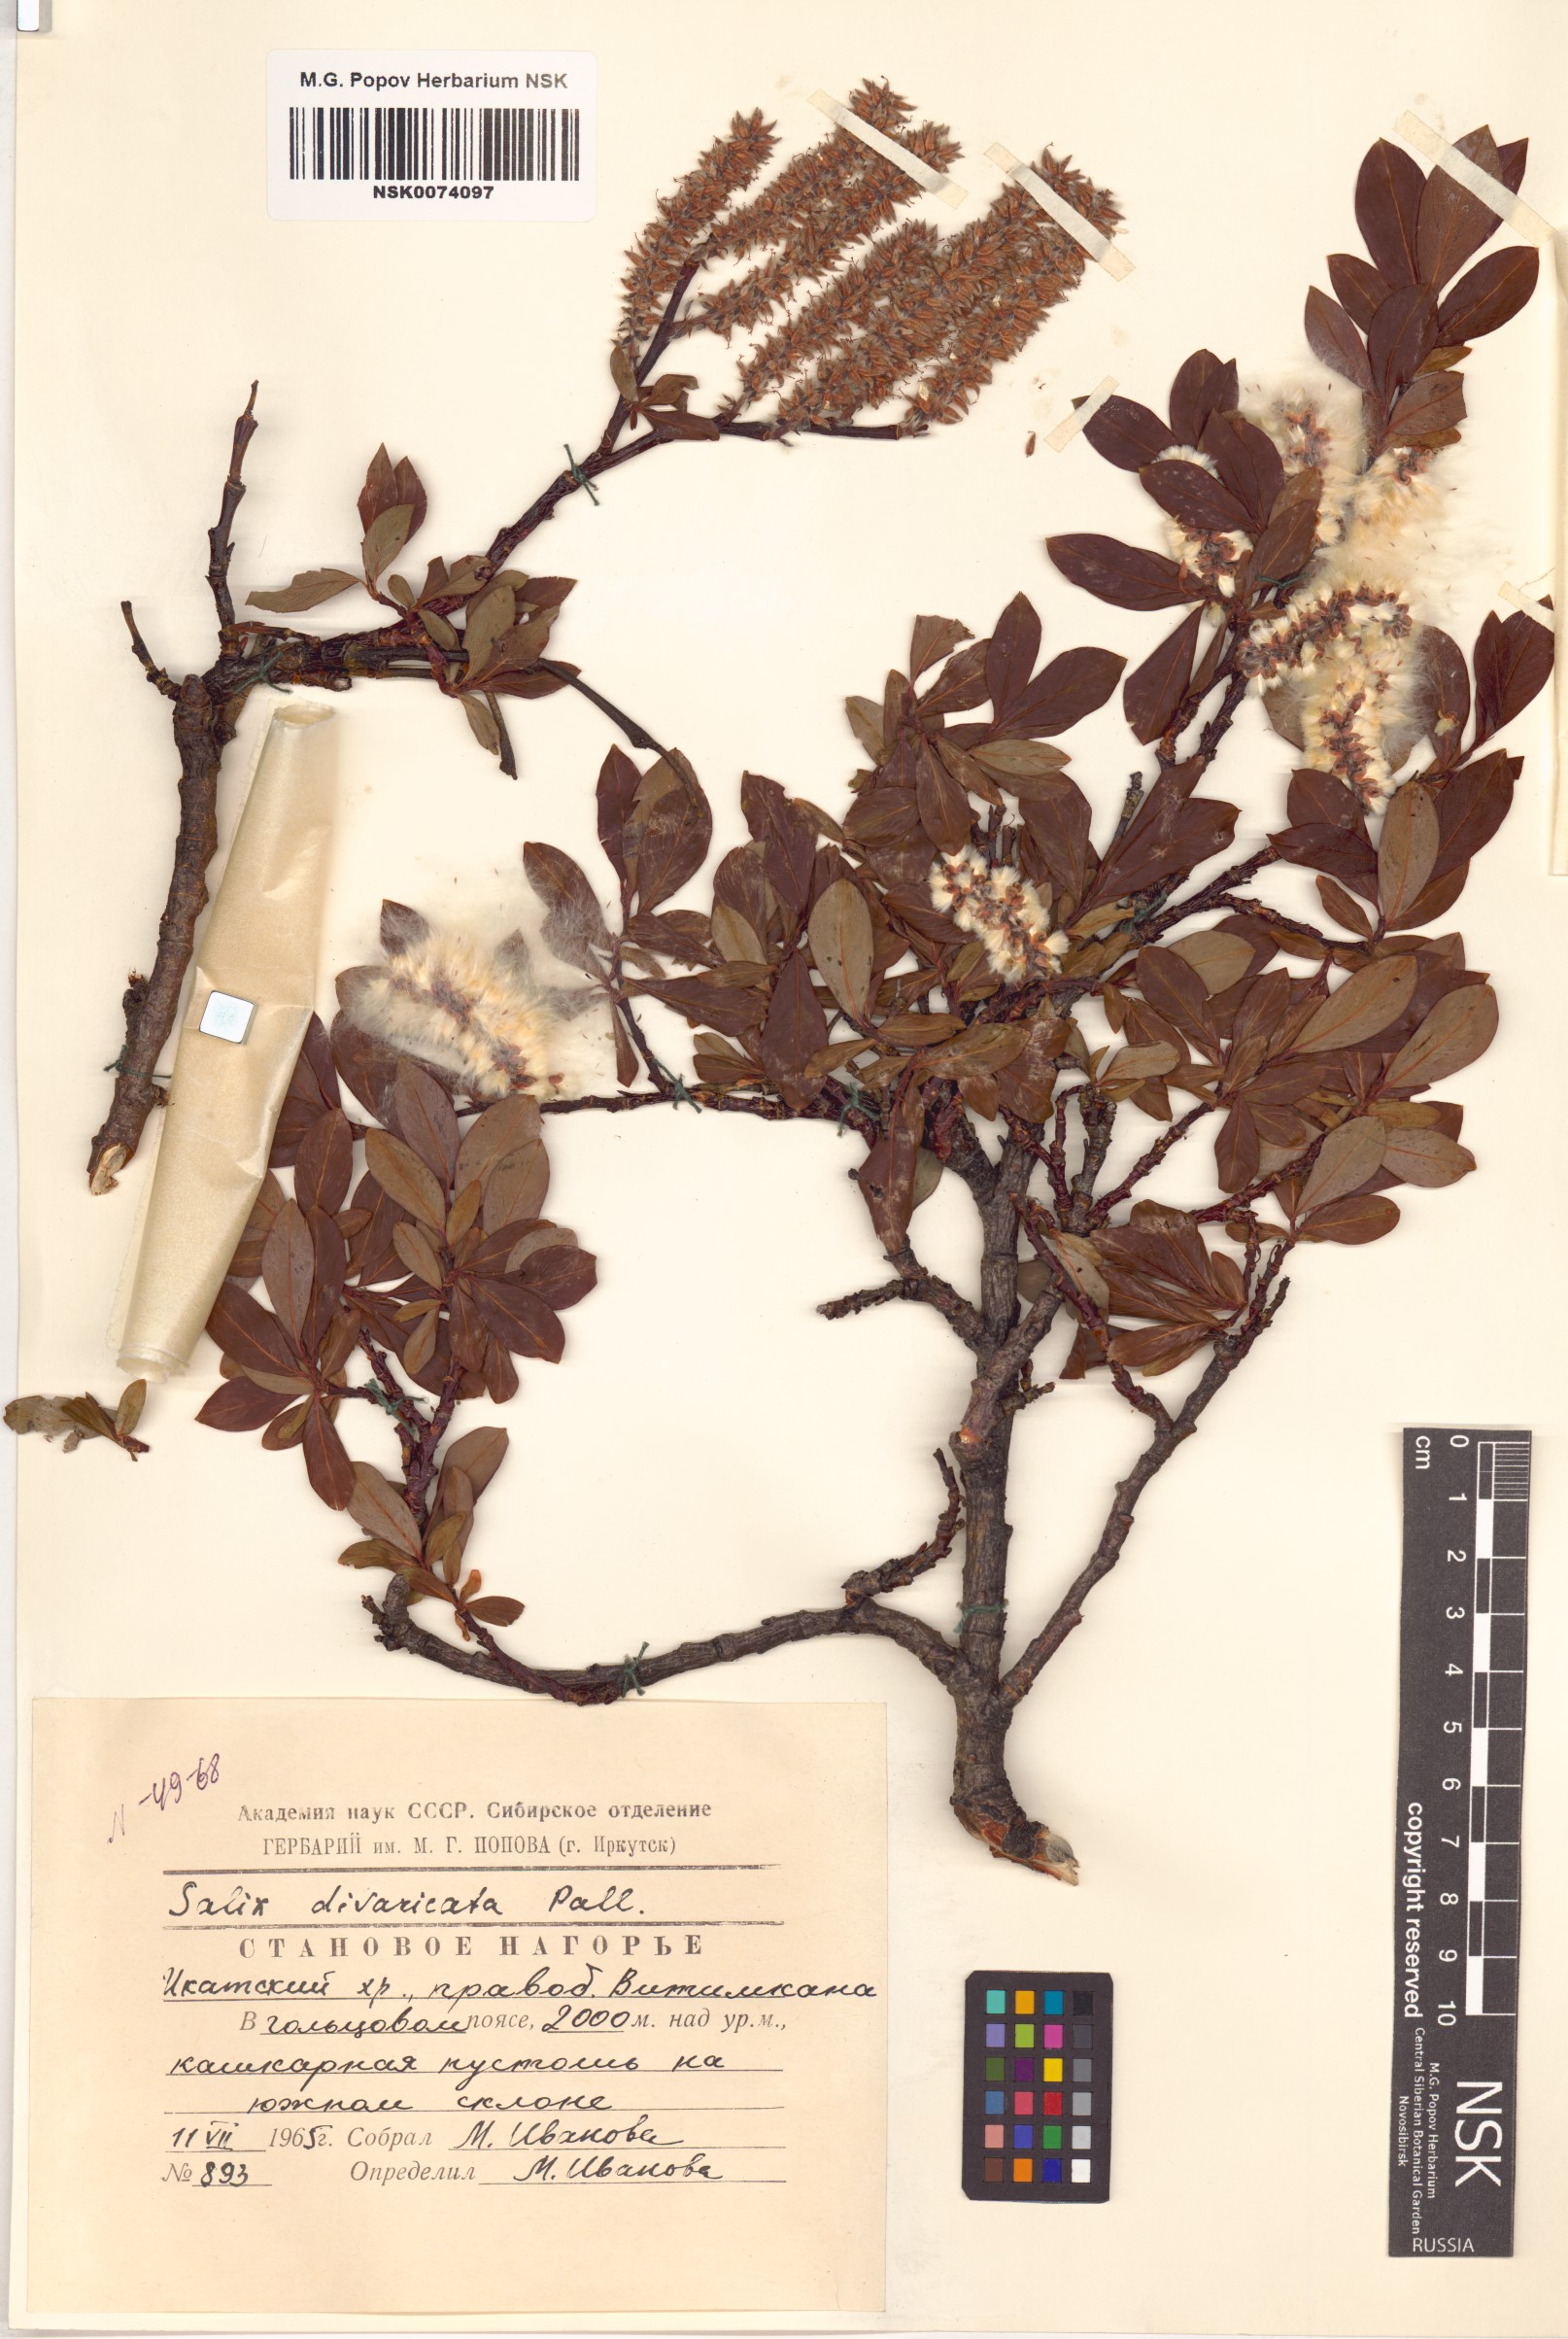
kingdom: Plantae
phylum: Tracheophyta
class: Magnoliopsida
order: Malpighiales
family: Salicaceae
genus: Salix
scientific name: Salix divaricata
